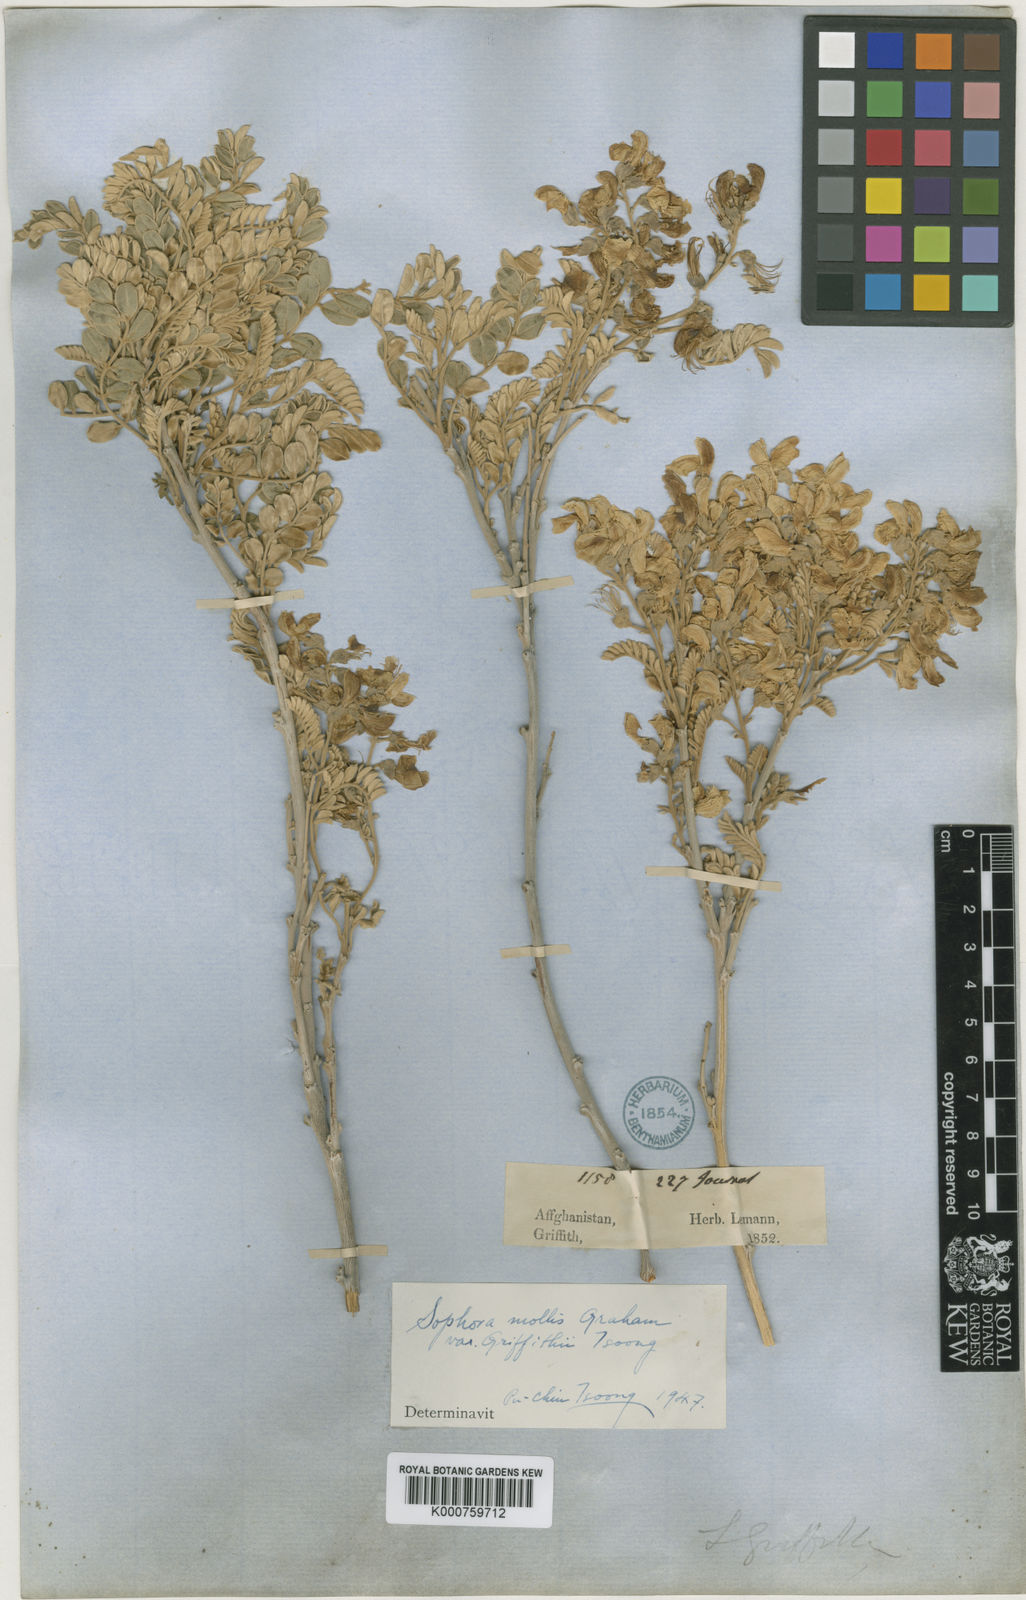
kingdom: Plantae
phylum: Tracheophyta
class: Magnoliopsida
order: Fabales
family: Fabaceae
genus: Sophora
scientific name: Sophora
